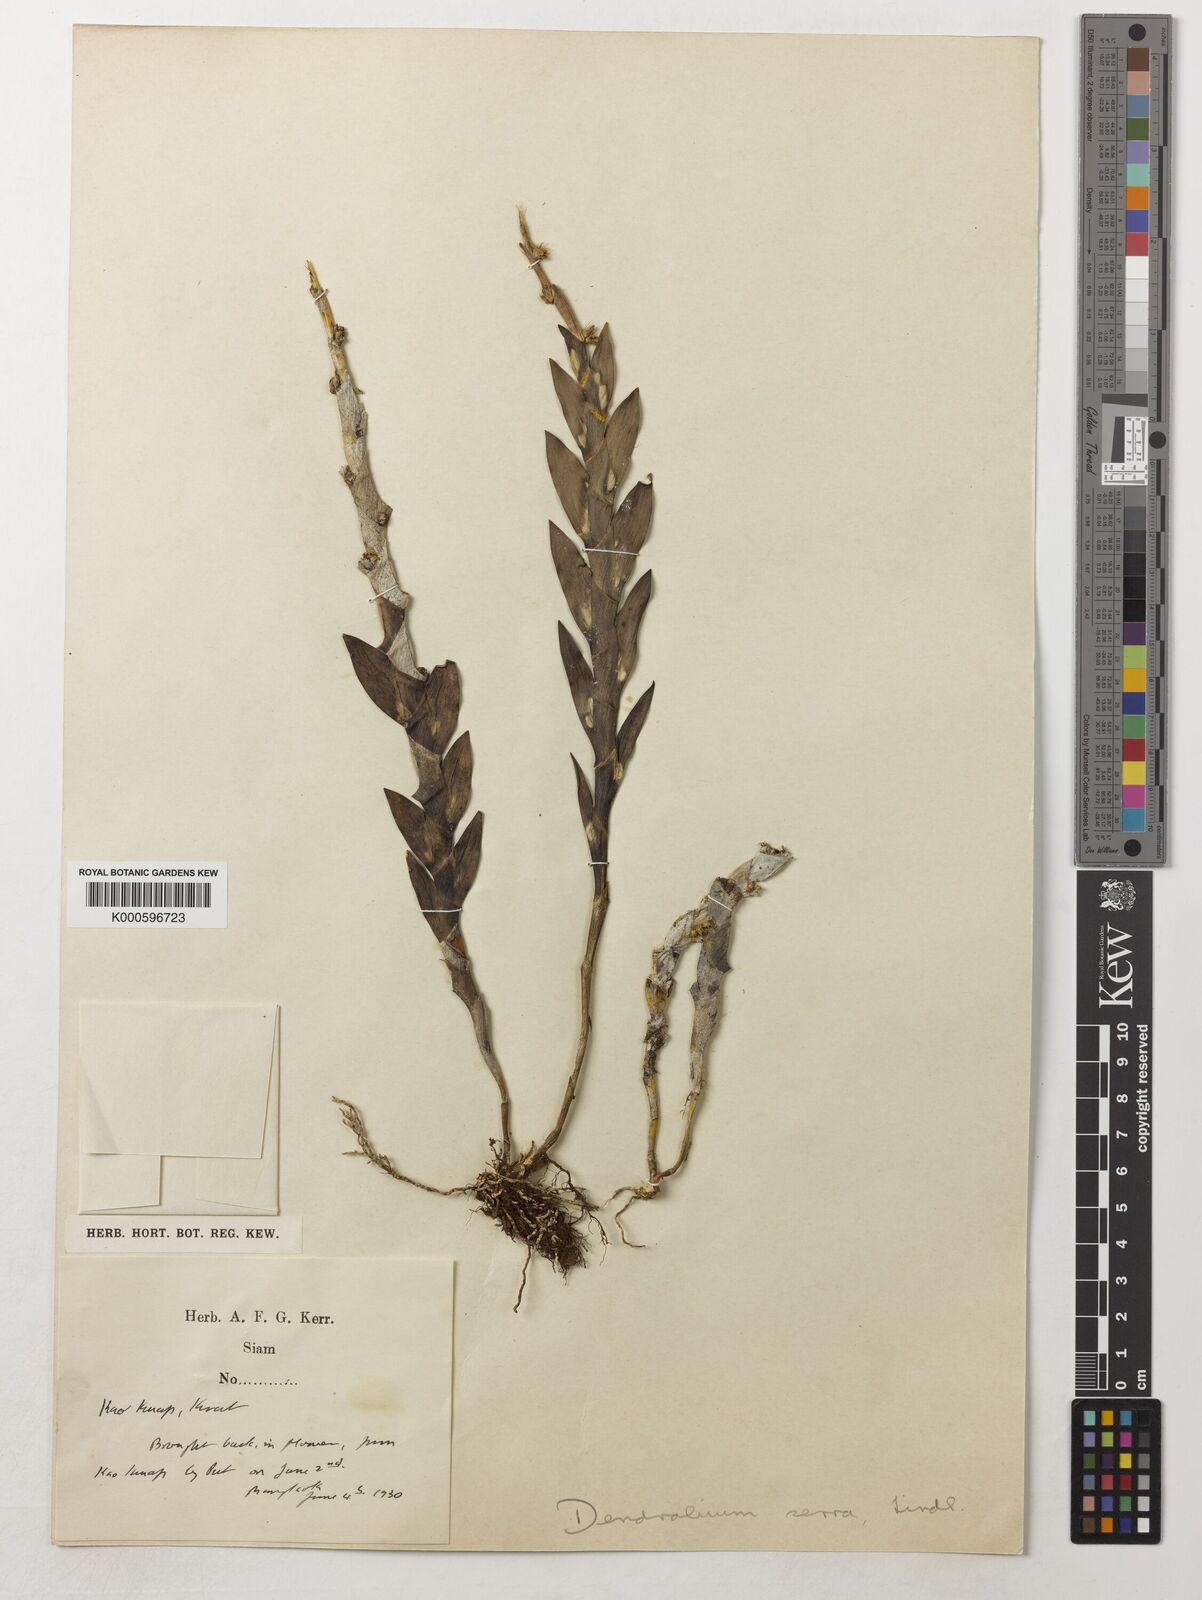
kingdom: Plantae
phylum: Tracheophyta
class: Liliopsida
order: Asparagales
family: Orchidaceae
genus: Dendrobium
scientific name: Dendrobium aloifolium
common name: Aloe-like dendrobium
